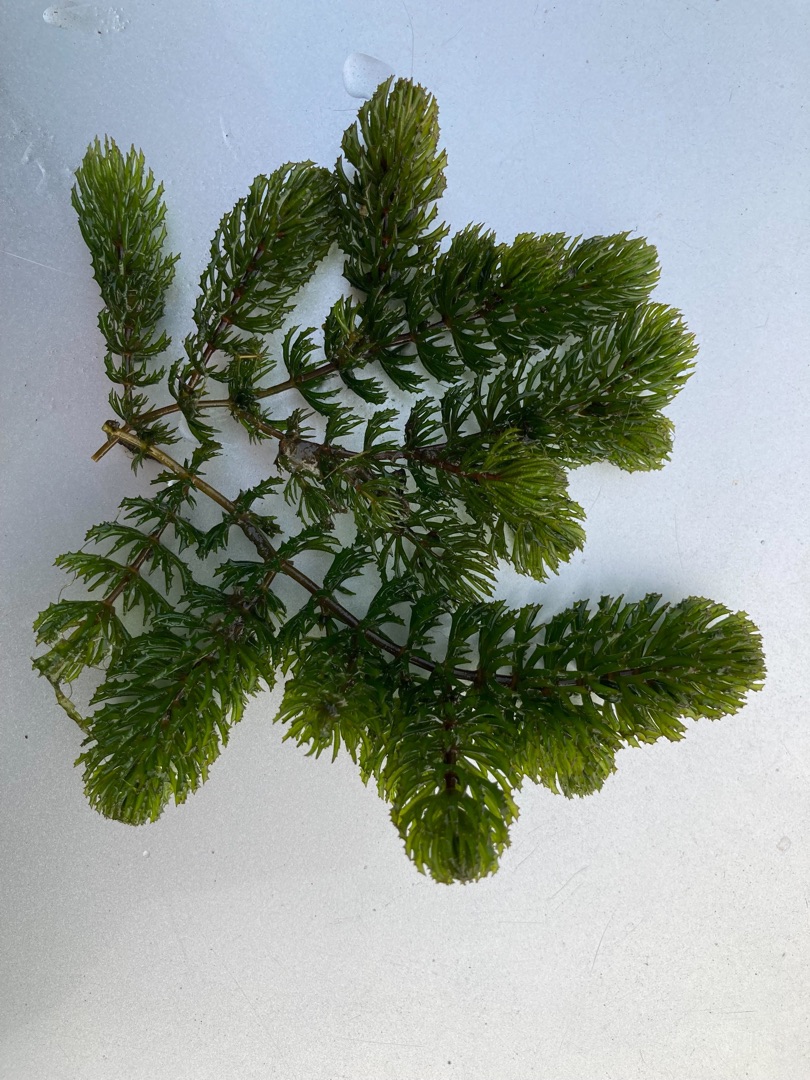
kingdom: Plantae
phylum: Tracheophyta
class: Magnoliopsida
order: Ceratophyllales
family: Ceratophyllaceae
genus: Ceratophyllum
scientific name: Ceratophyllum demersum
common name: Tornfrøet hornblad
